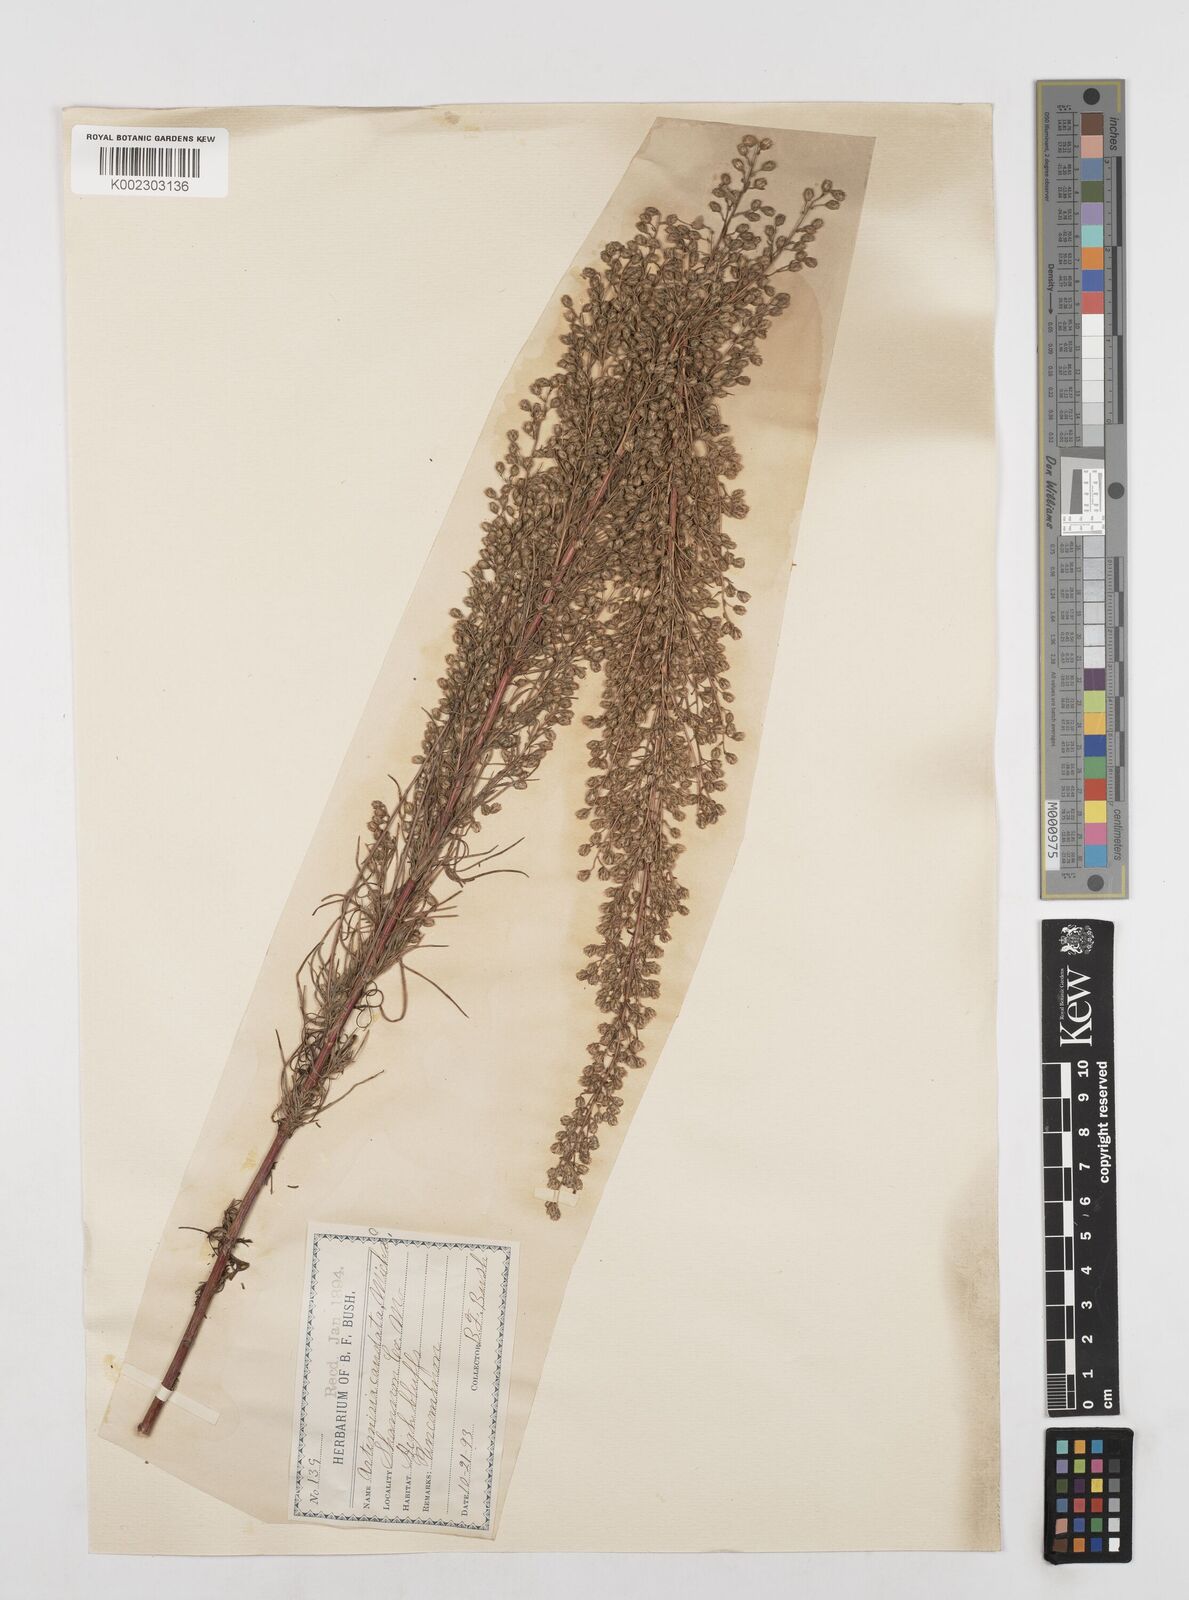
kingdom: Plantae
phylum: Tracheophyta
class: Magnoliopsida
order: Asterales
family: Asteraceae
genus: Artemisia
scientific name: Artemisia campestris
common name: Field wormwood
